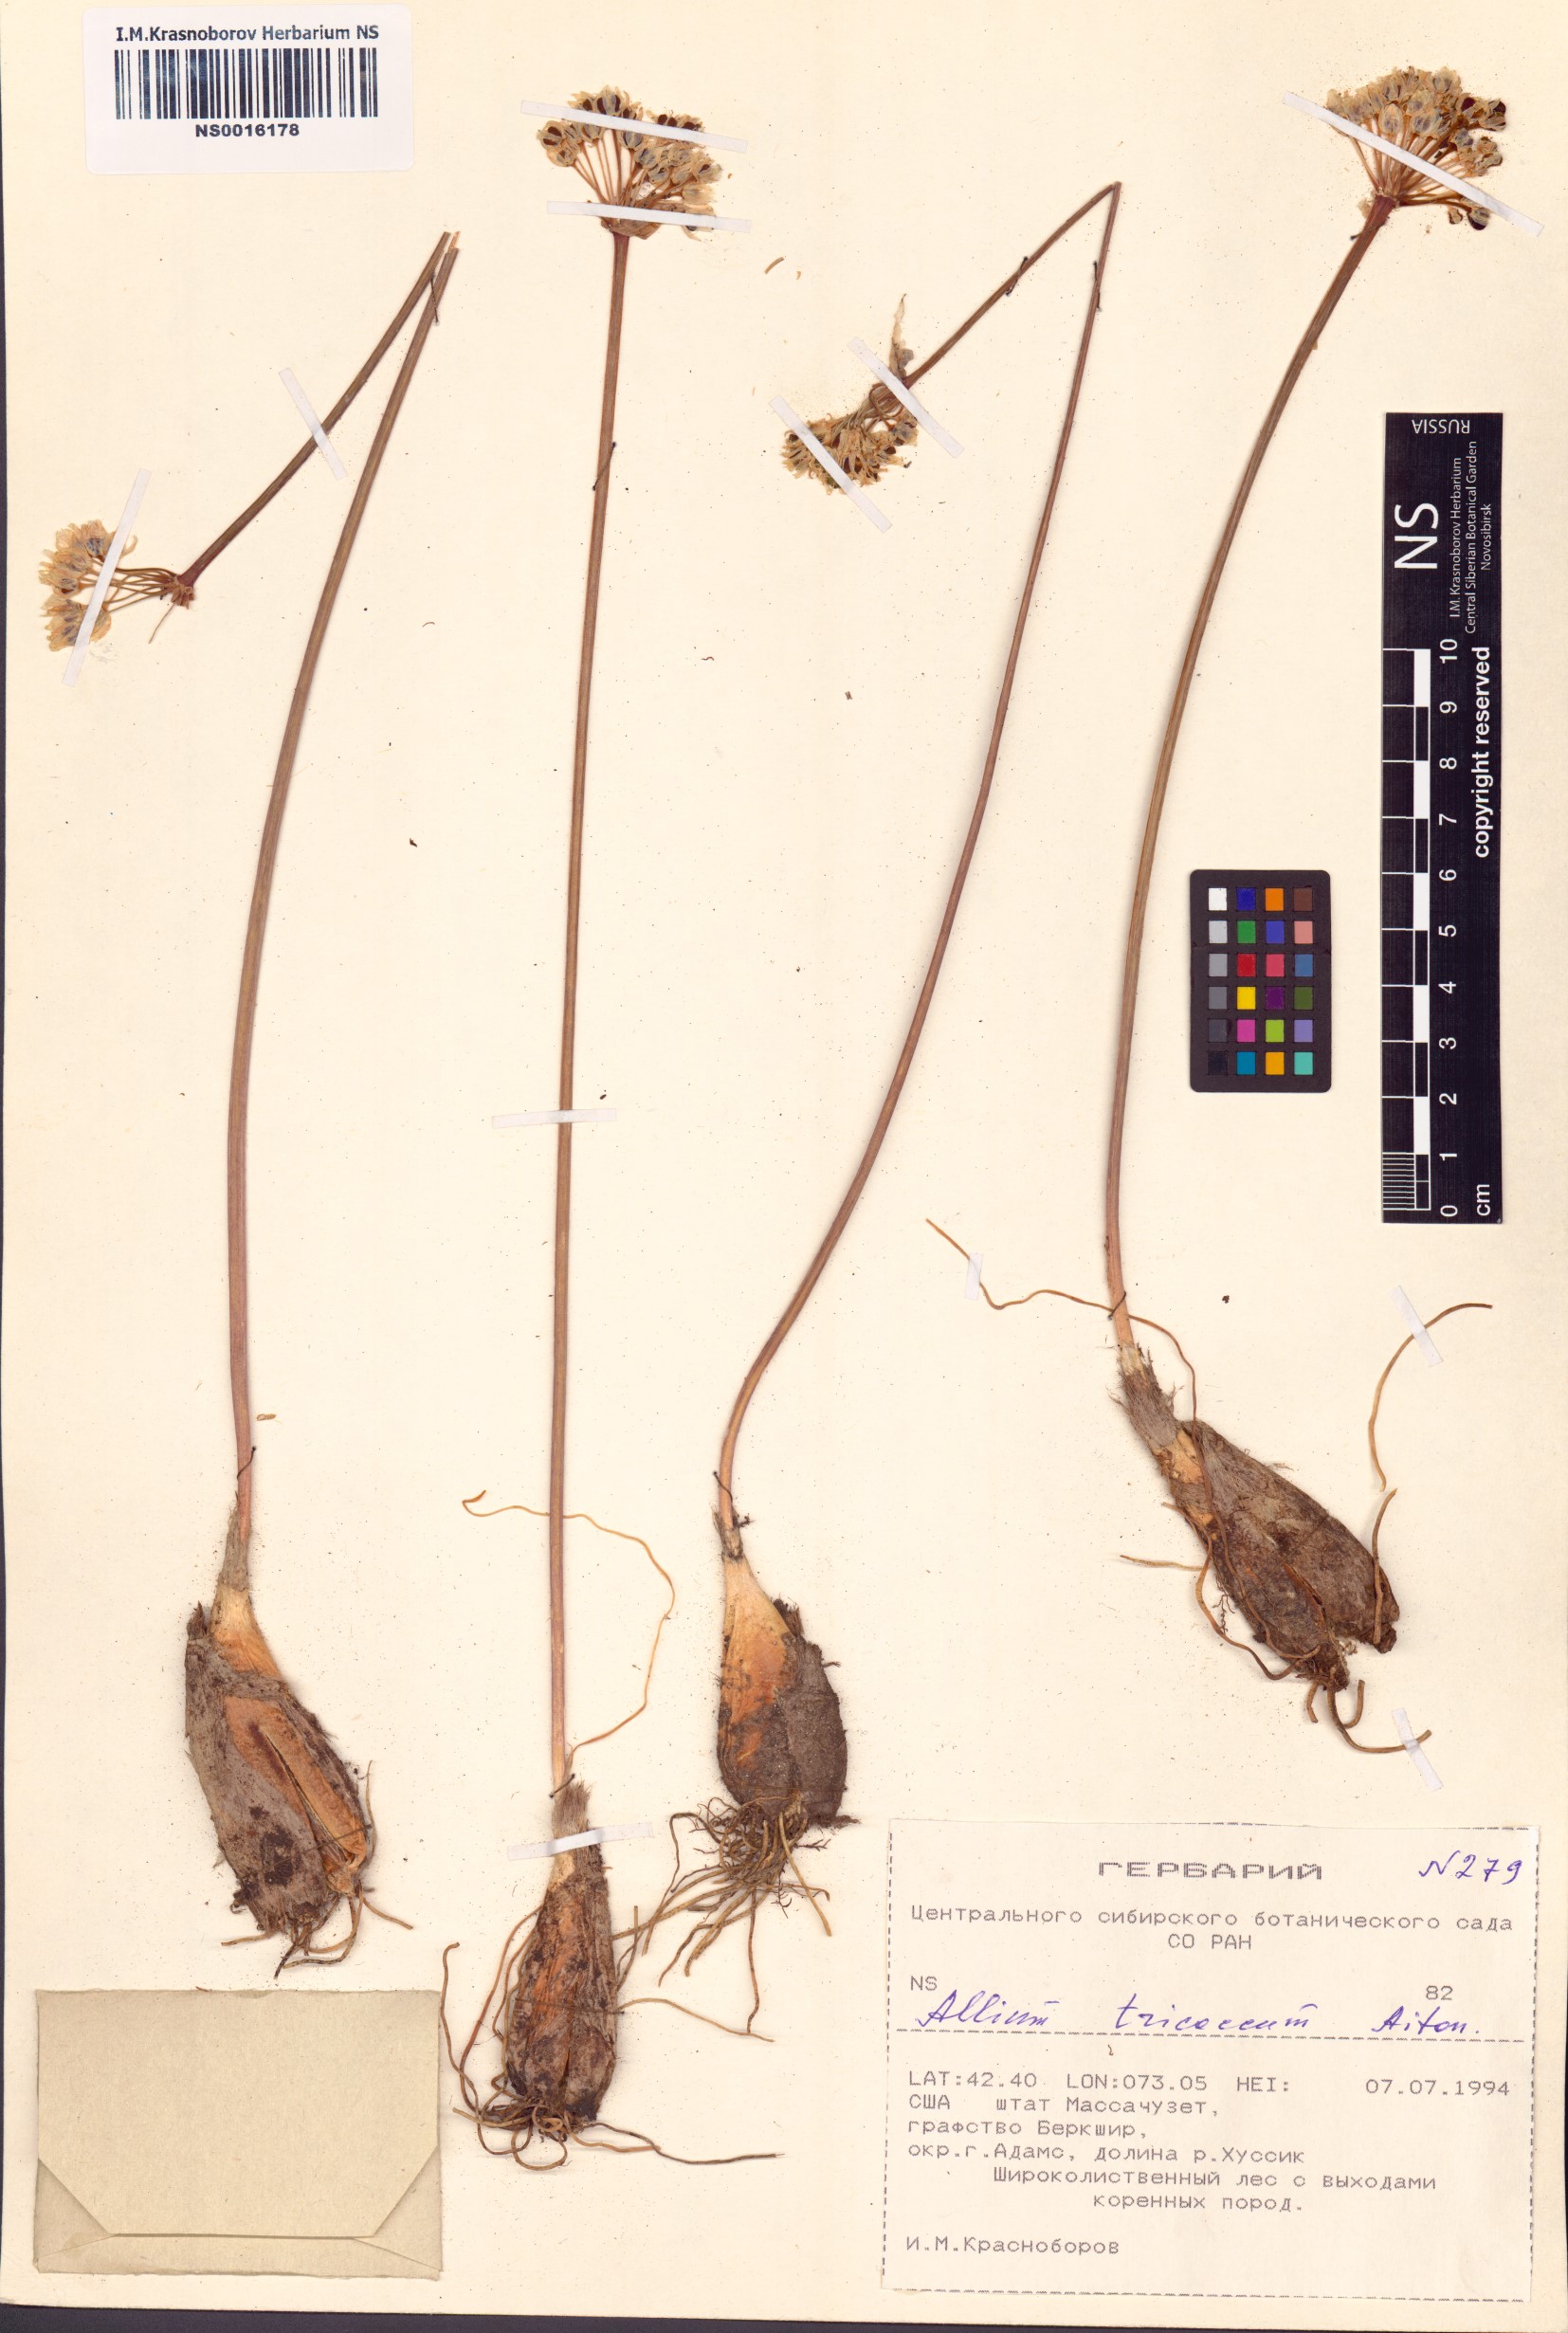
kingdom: Plantae
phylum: Tracheophyta
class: Liliopsida
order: Asparagales
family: Amaryllidaceae
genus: Allium
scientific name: Allium tricoccum
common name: Ramp
